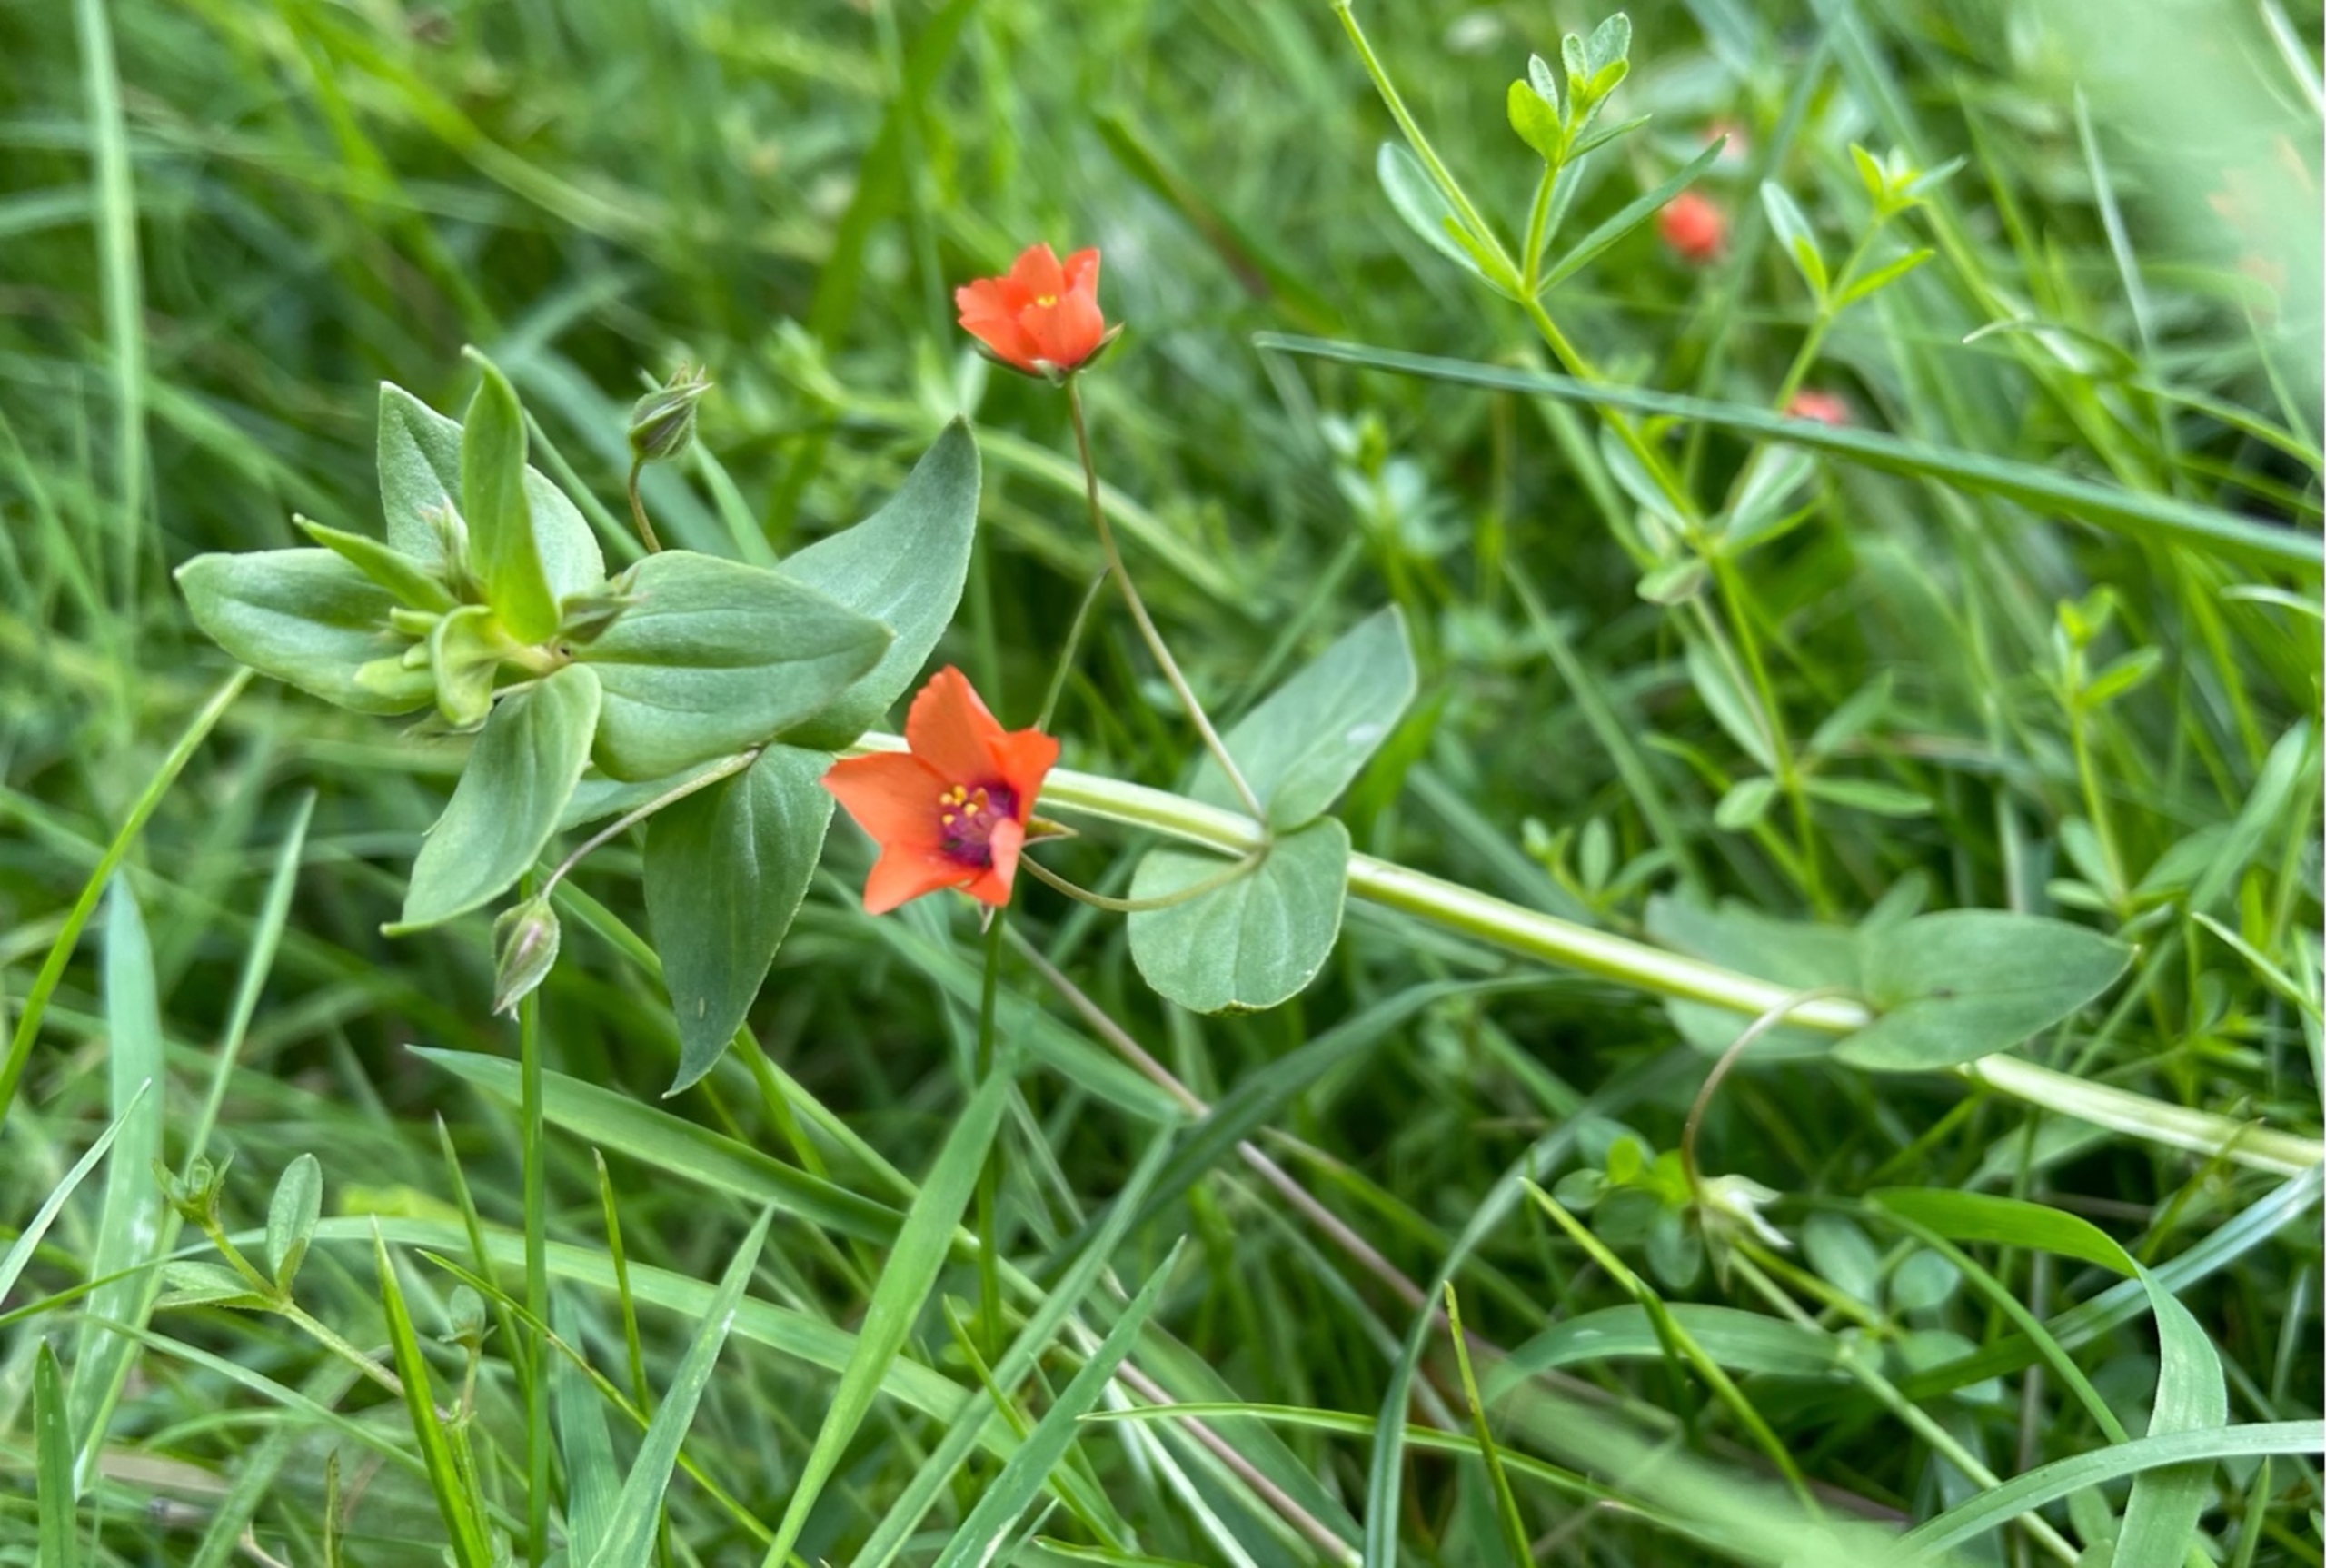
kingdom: Plantae
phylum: Tracheophyta
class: Magnoliopsida
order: Ericales
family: Primulaceae
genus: Lysimachia
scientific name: Lysimachia arvensis
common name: Rød arve
